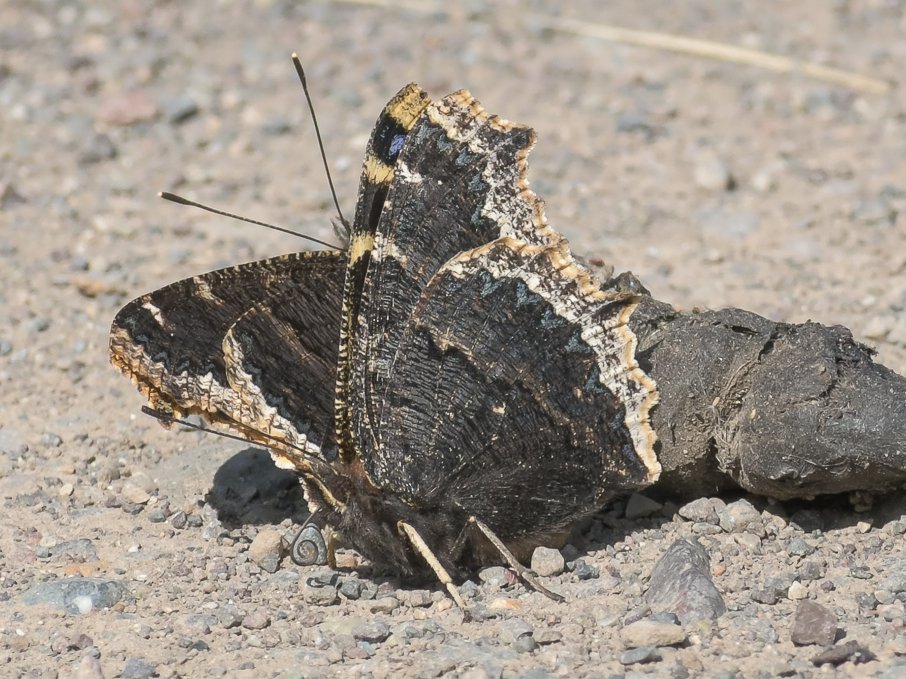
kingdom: Animalia
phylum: Arthropoda
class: Insecta
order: Lepidoptera
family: Nymphalidae
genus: Nymphalis
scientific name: Nymphalis antiopa
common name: Mourning Cloak
